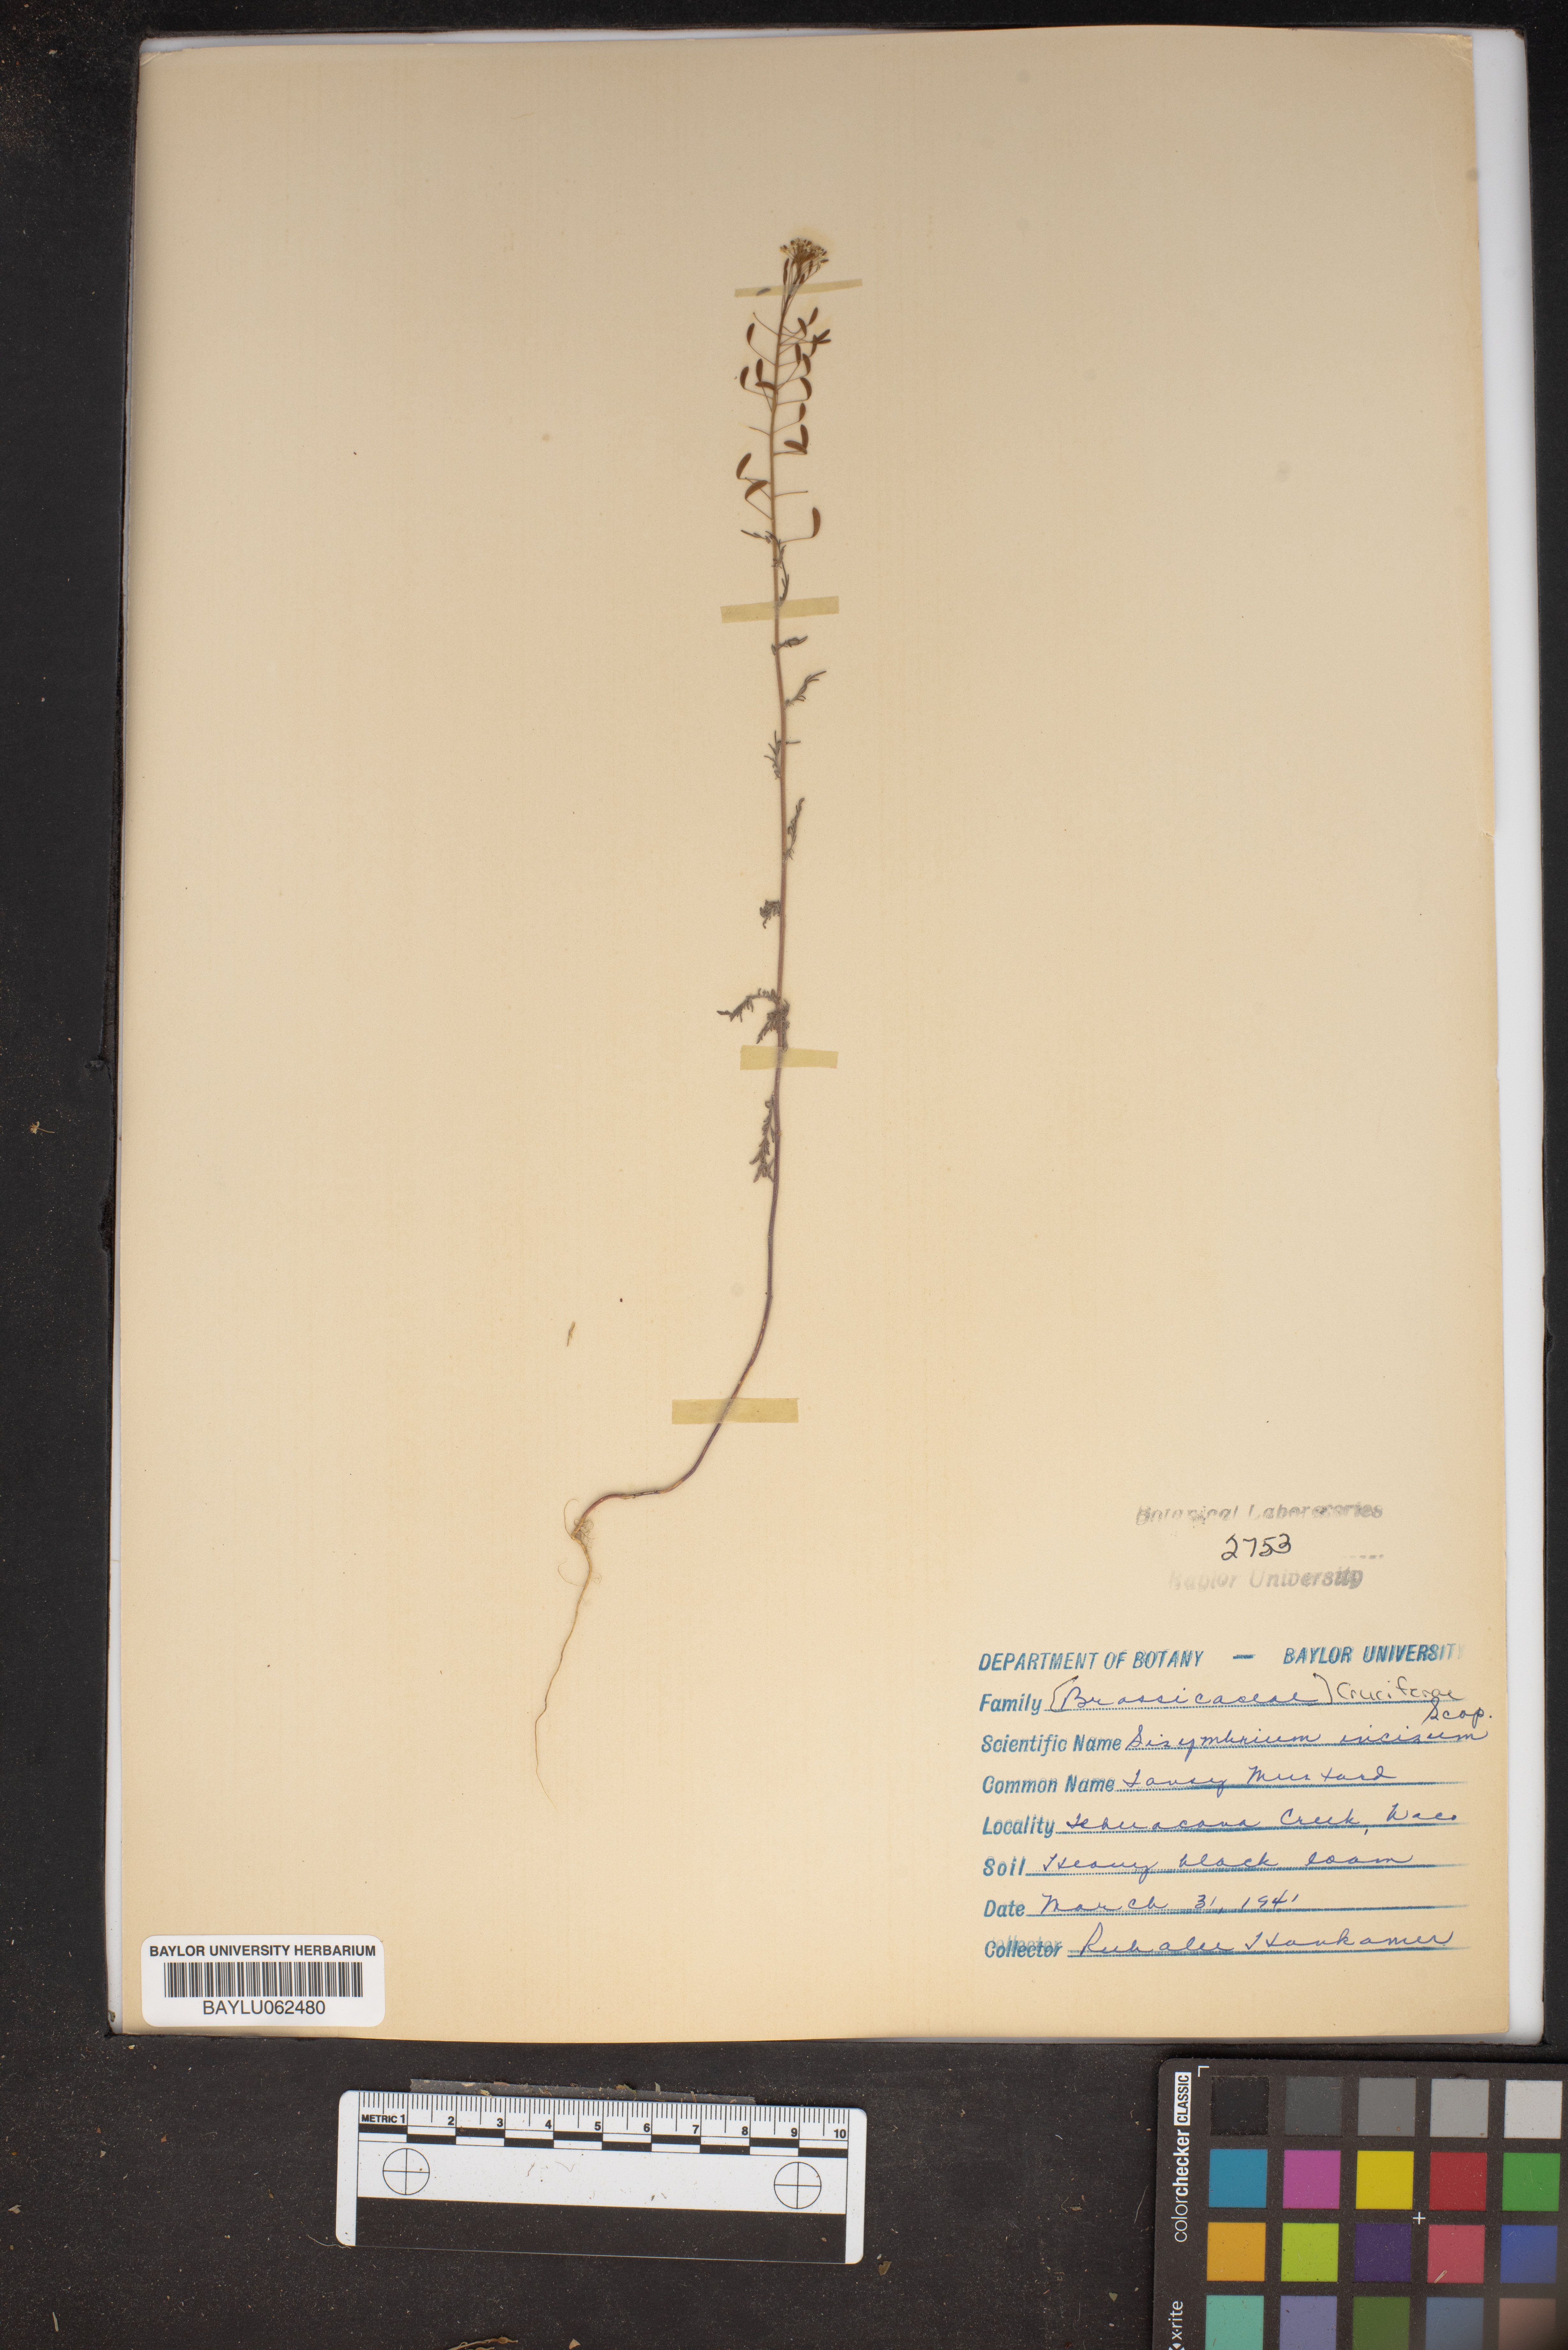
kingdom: Plantae
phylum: Tracheophyta
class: Magnoliopsida
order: Brassicales
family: Brassicaceae
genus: Descurainia
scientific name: Descurainia incisa
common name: Cut-leaved tansy mustard
